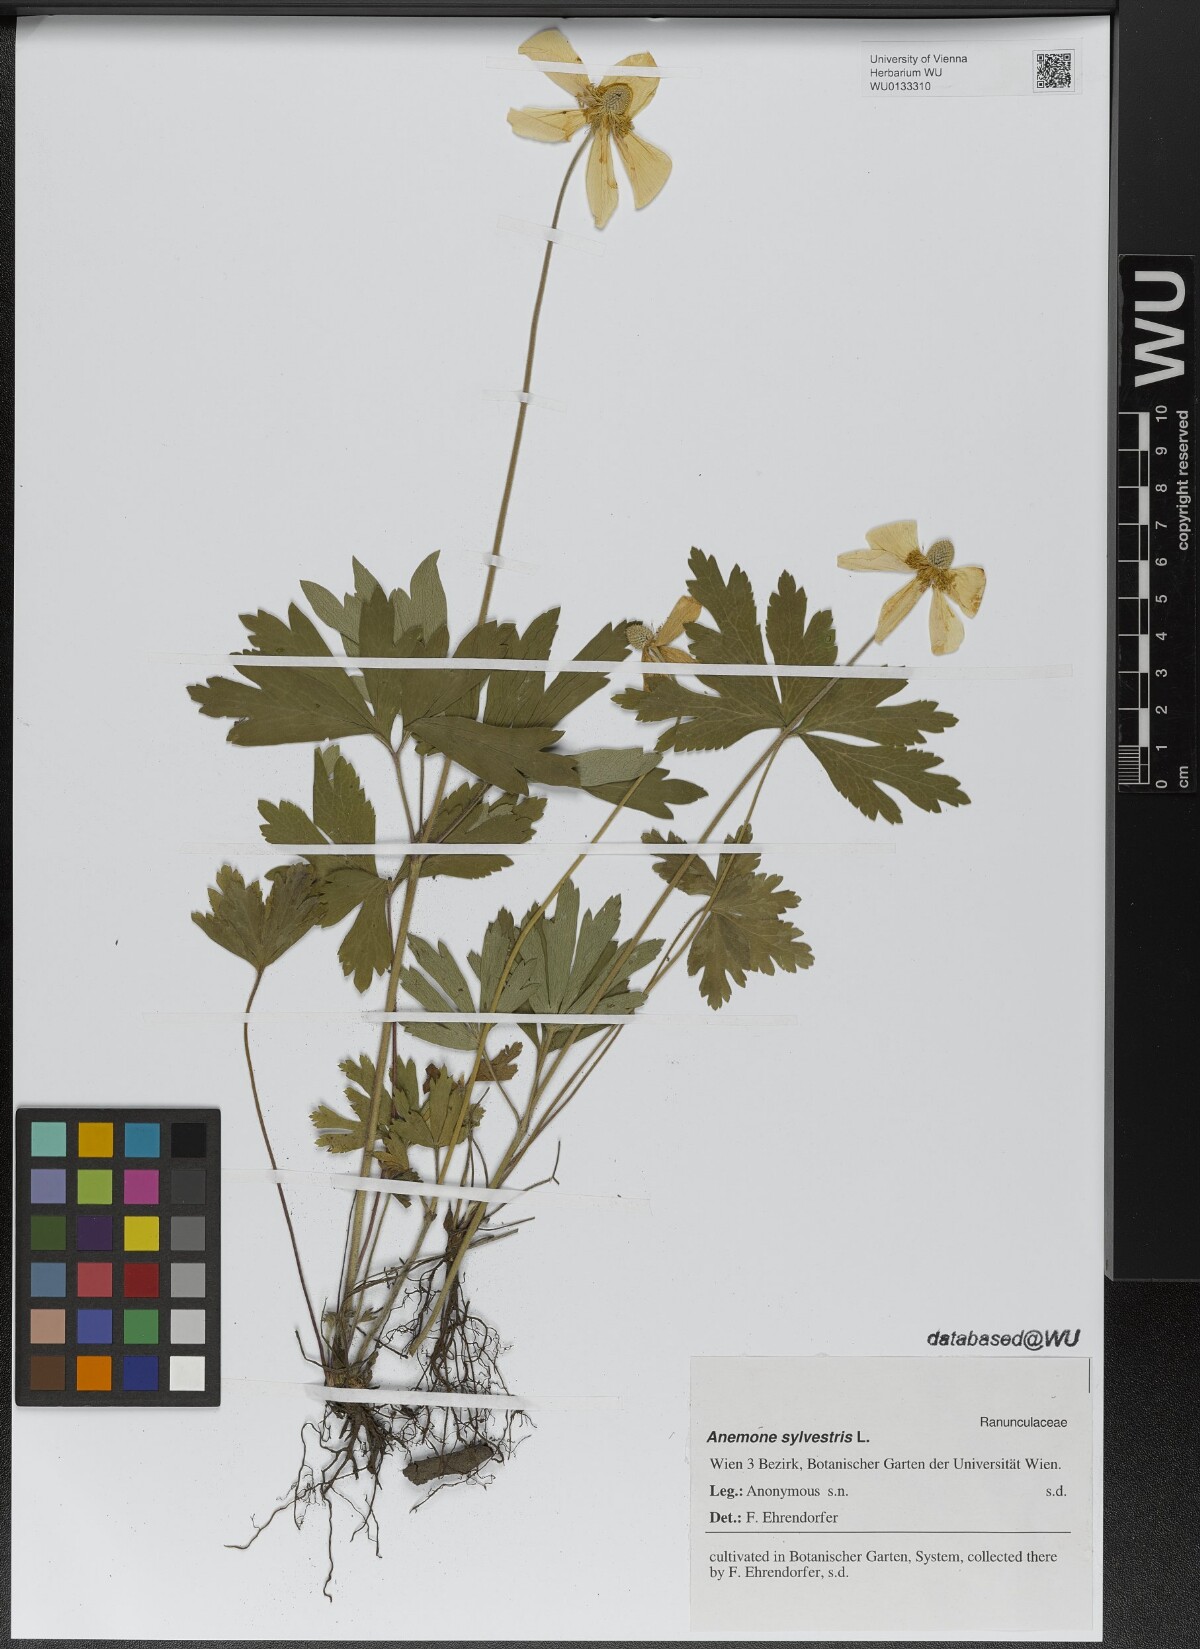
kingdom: Plantae
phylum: Tracheophyta
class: Magnoliopsida
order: Ranunculales
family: Ranunculaceae
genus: Anemone
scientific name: Anemone sylvestris
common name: Snowdrop anemone
